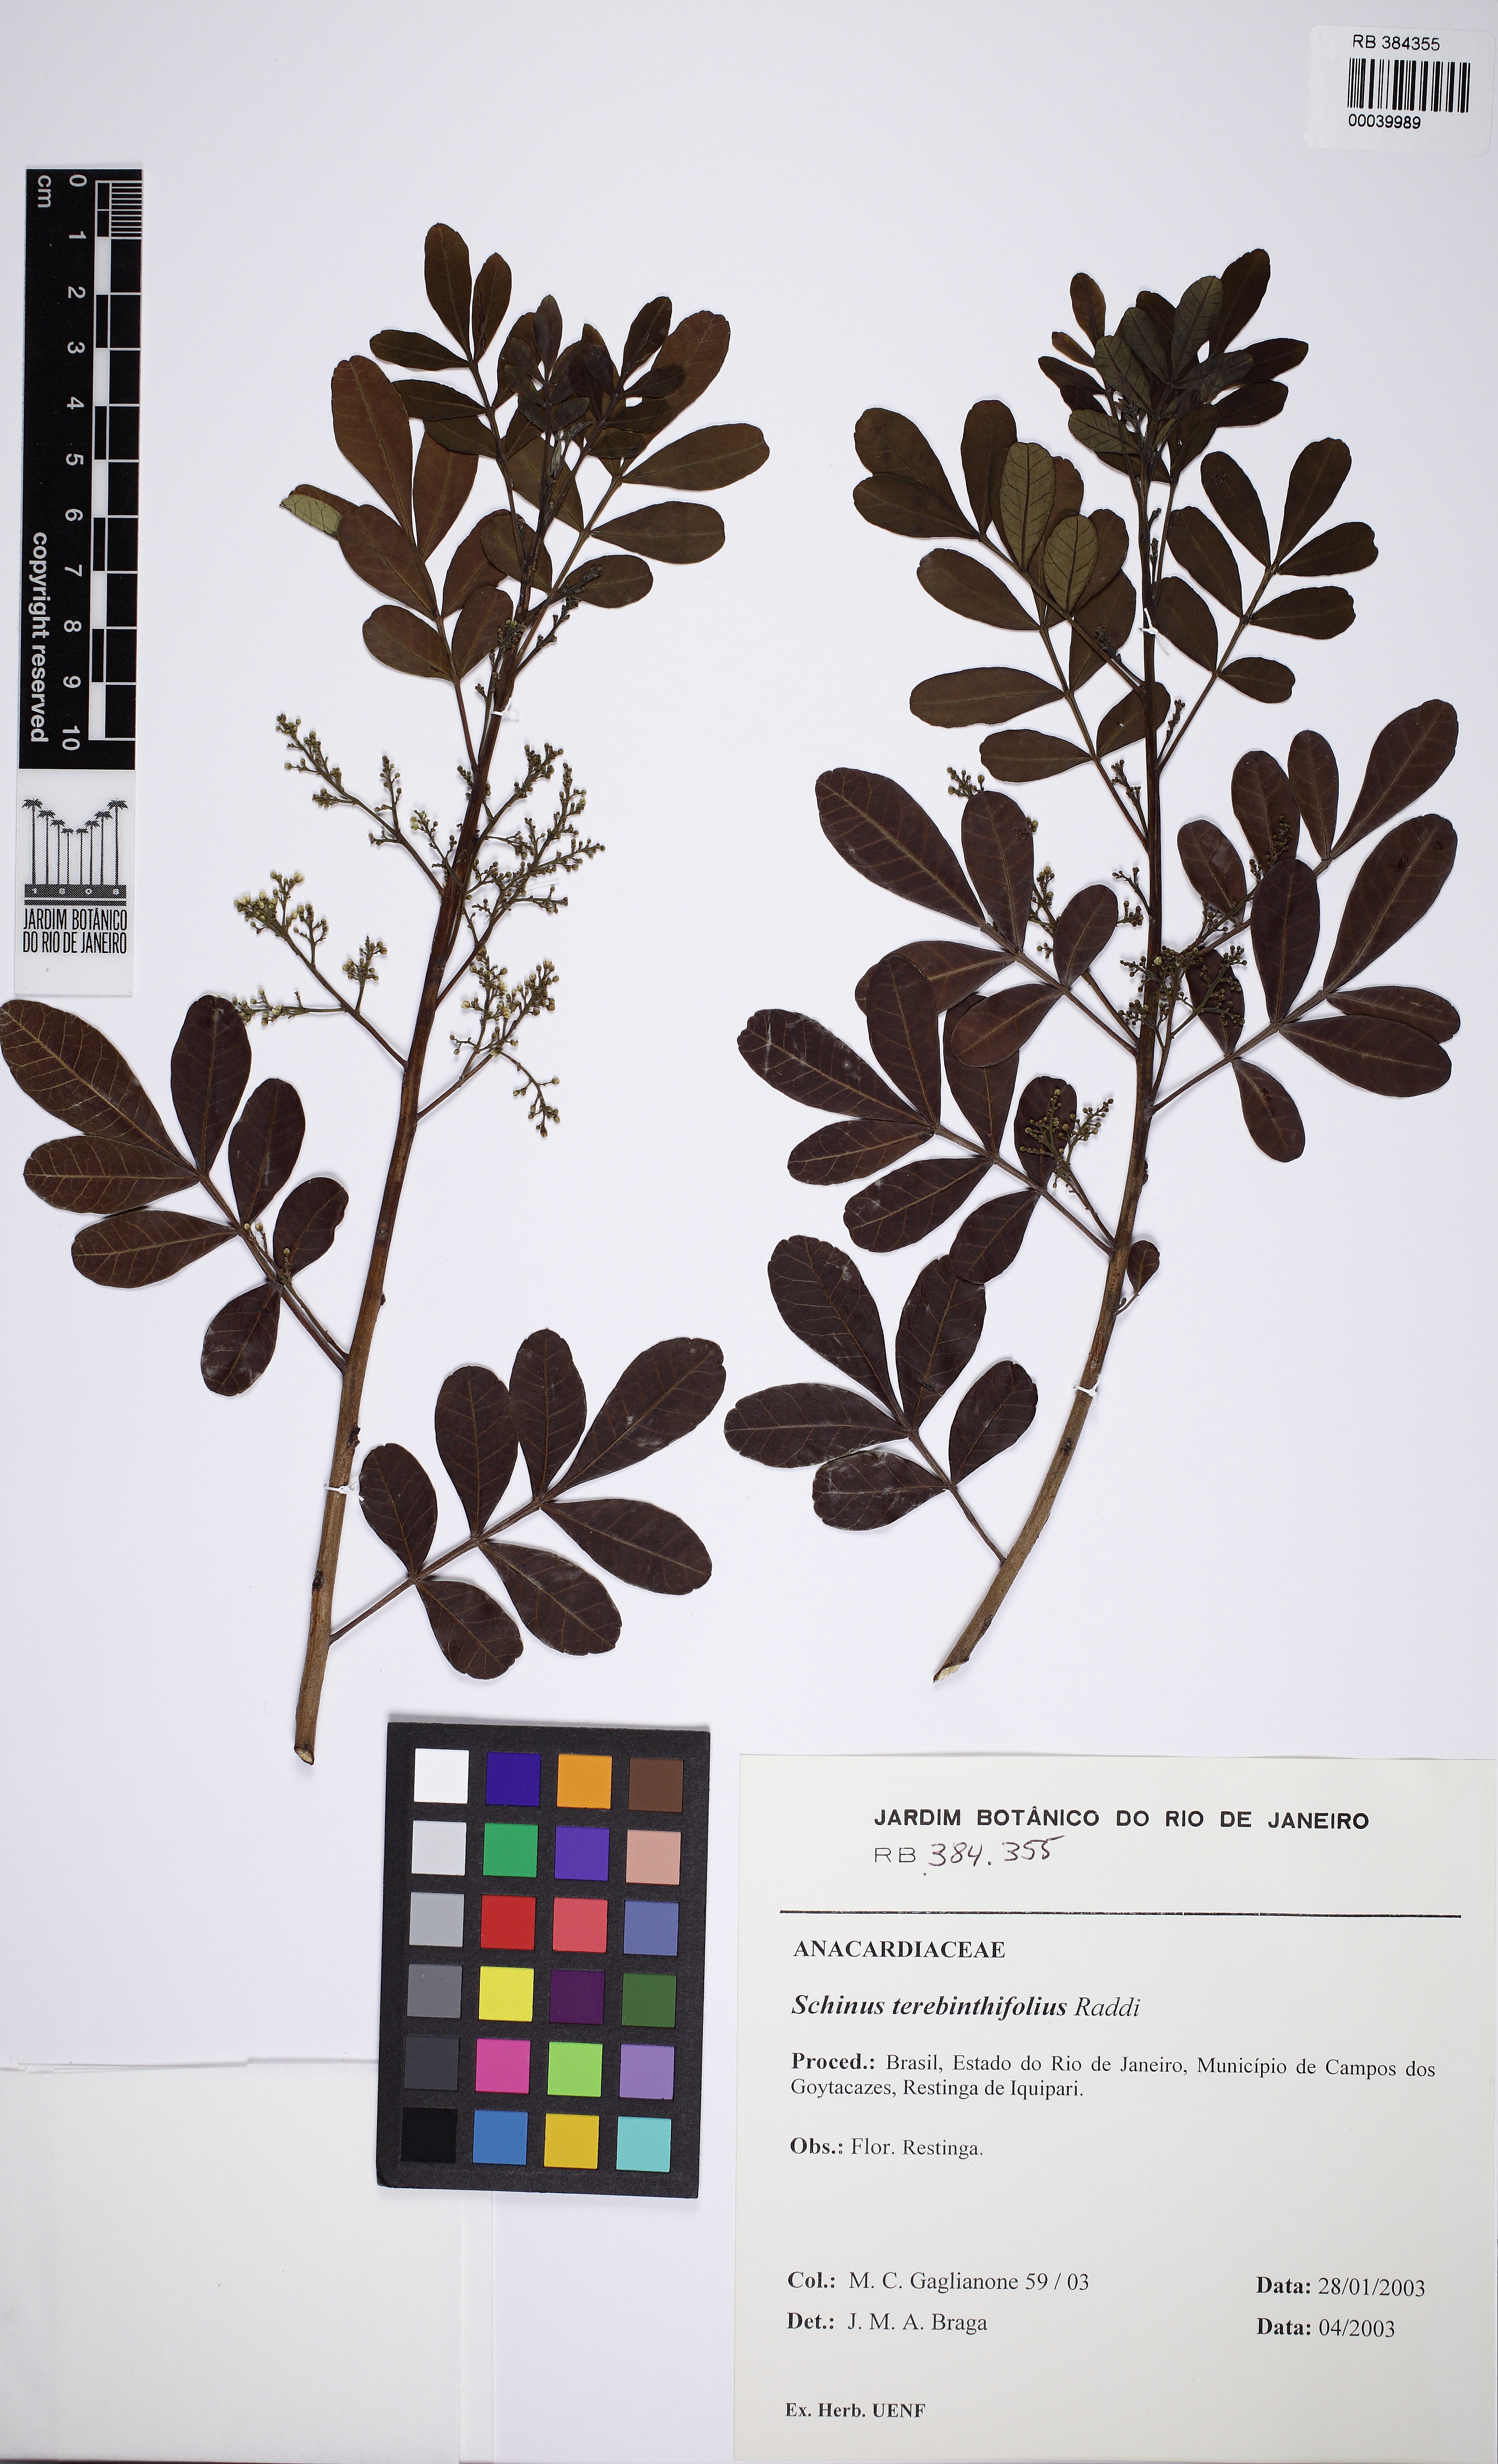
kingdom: Plantae
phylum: Tracheophyta
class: Magnoliopsida
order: Sapindales
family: Anacardiaceae
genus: Schinus
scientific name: Schinus terebinthifolia
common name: Brazilian peppertree
